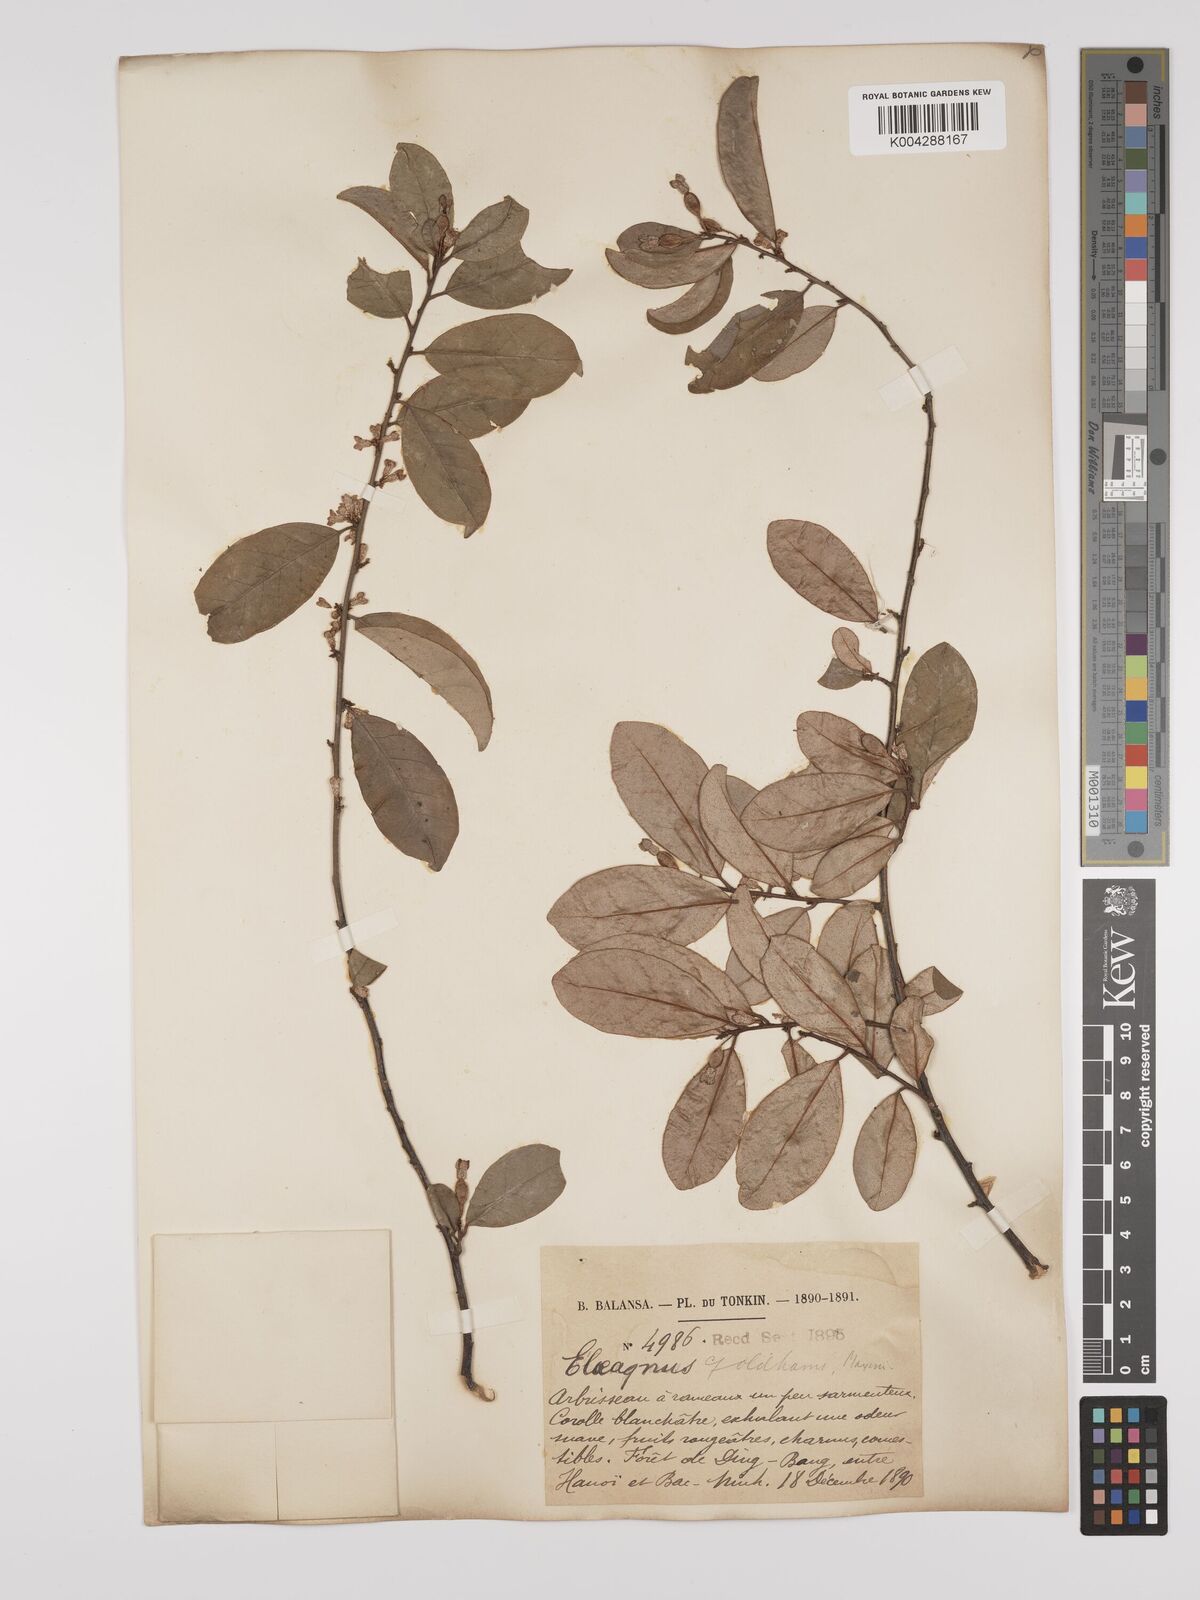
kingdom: Plantae
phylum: Tracheophyta
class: Magnoliopsida
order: Rosales
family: Elaeagnaceae
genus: Elaeagnus
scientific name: Elaeagnus
